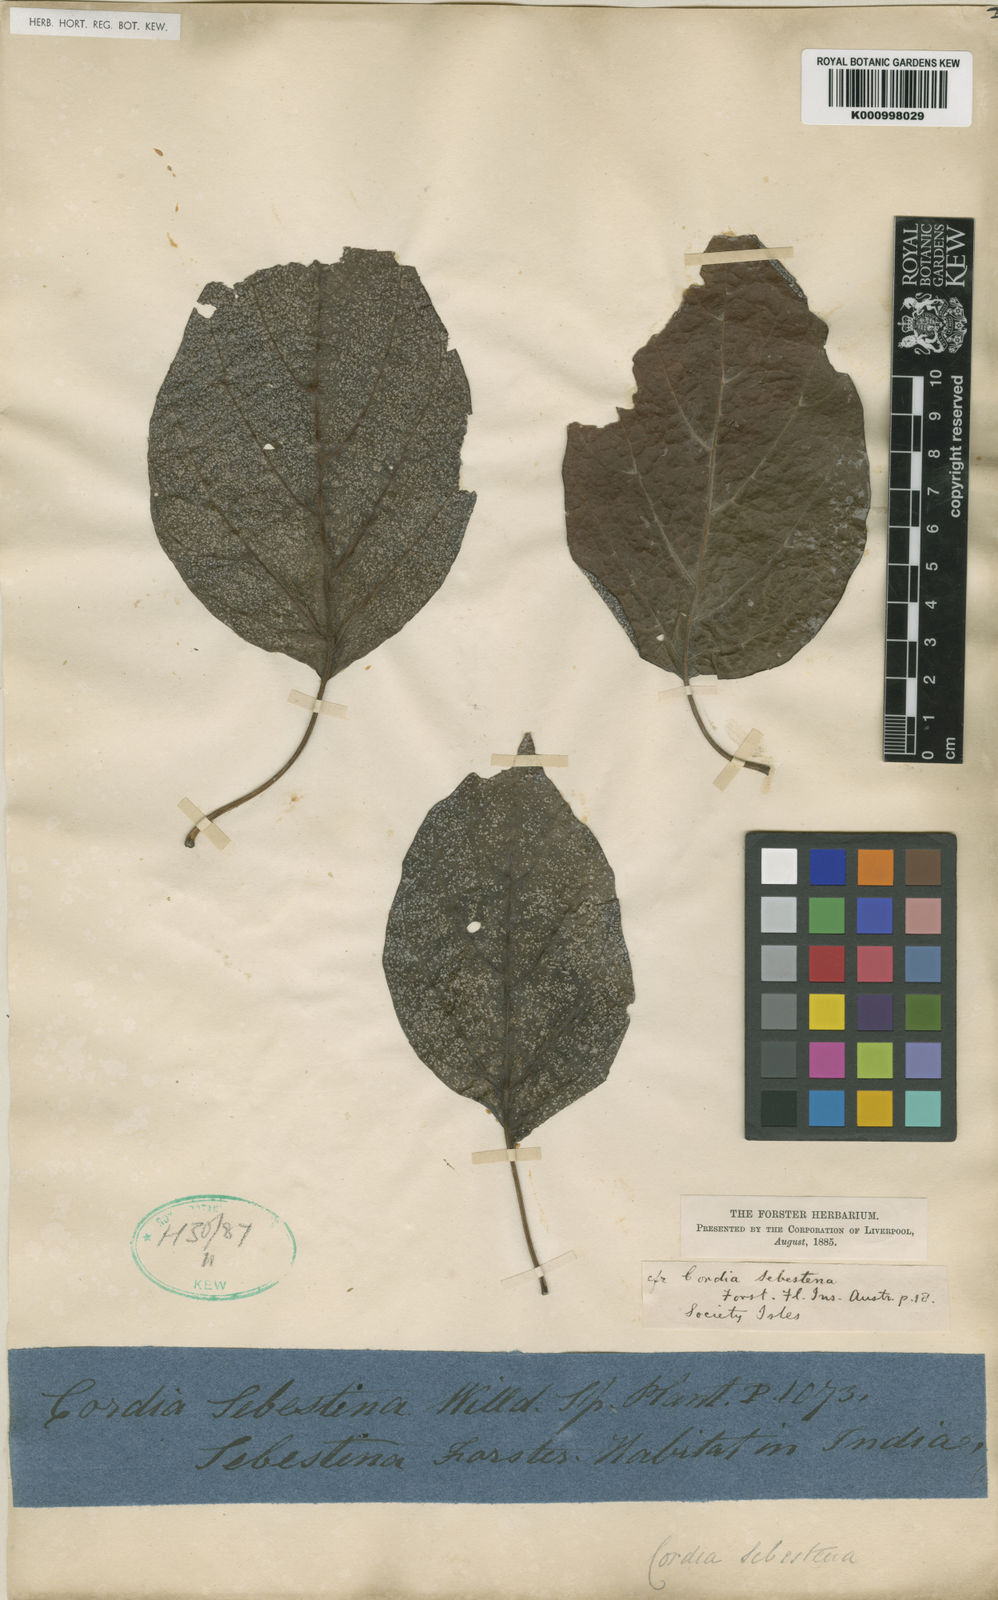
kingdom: Plantae
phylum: Tracheophyta
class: Magnoliopsida
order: Boraginales
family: Cordiaceae
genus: Cordia
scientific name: Cordia subcordata
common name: Mareer
